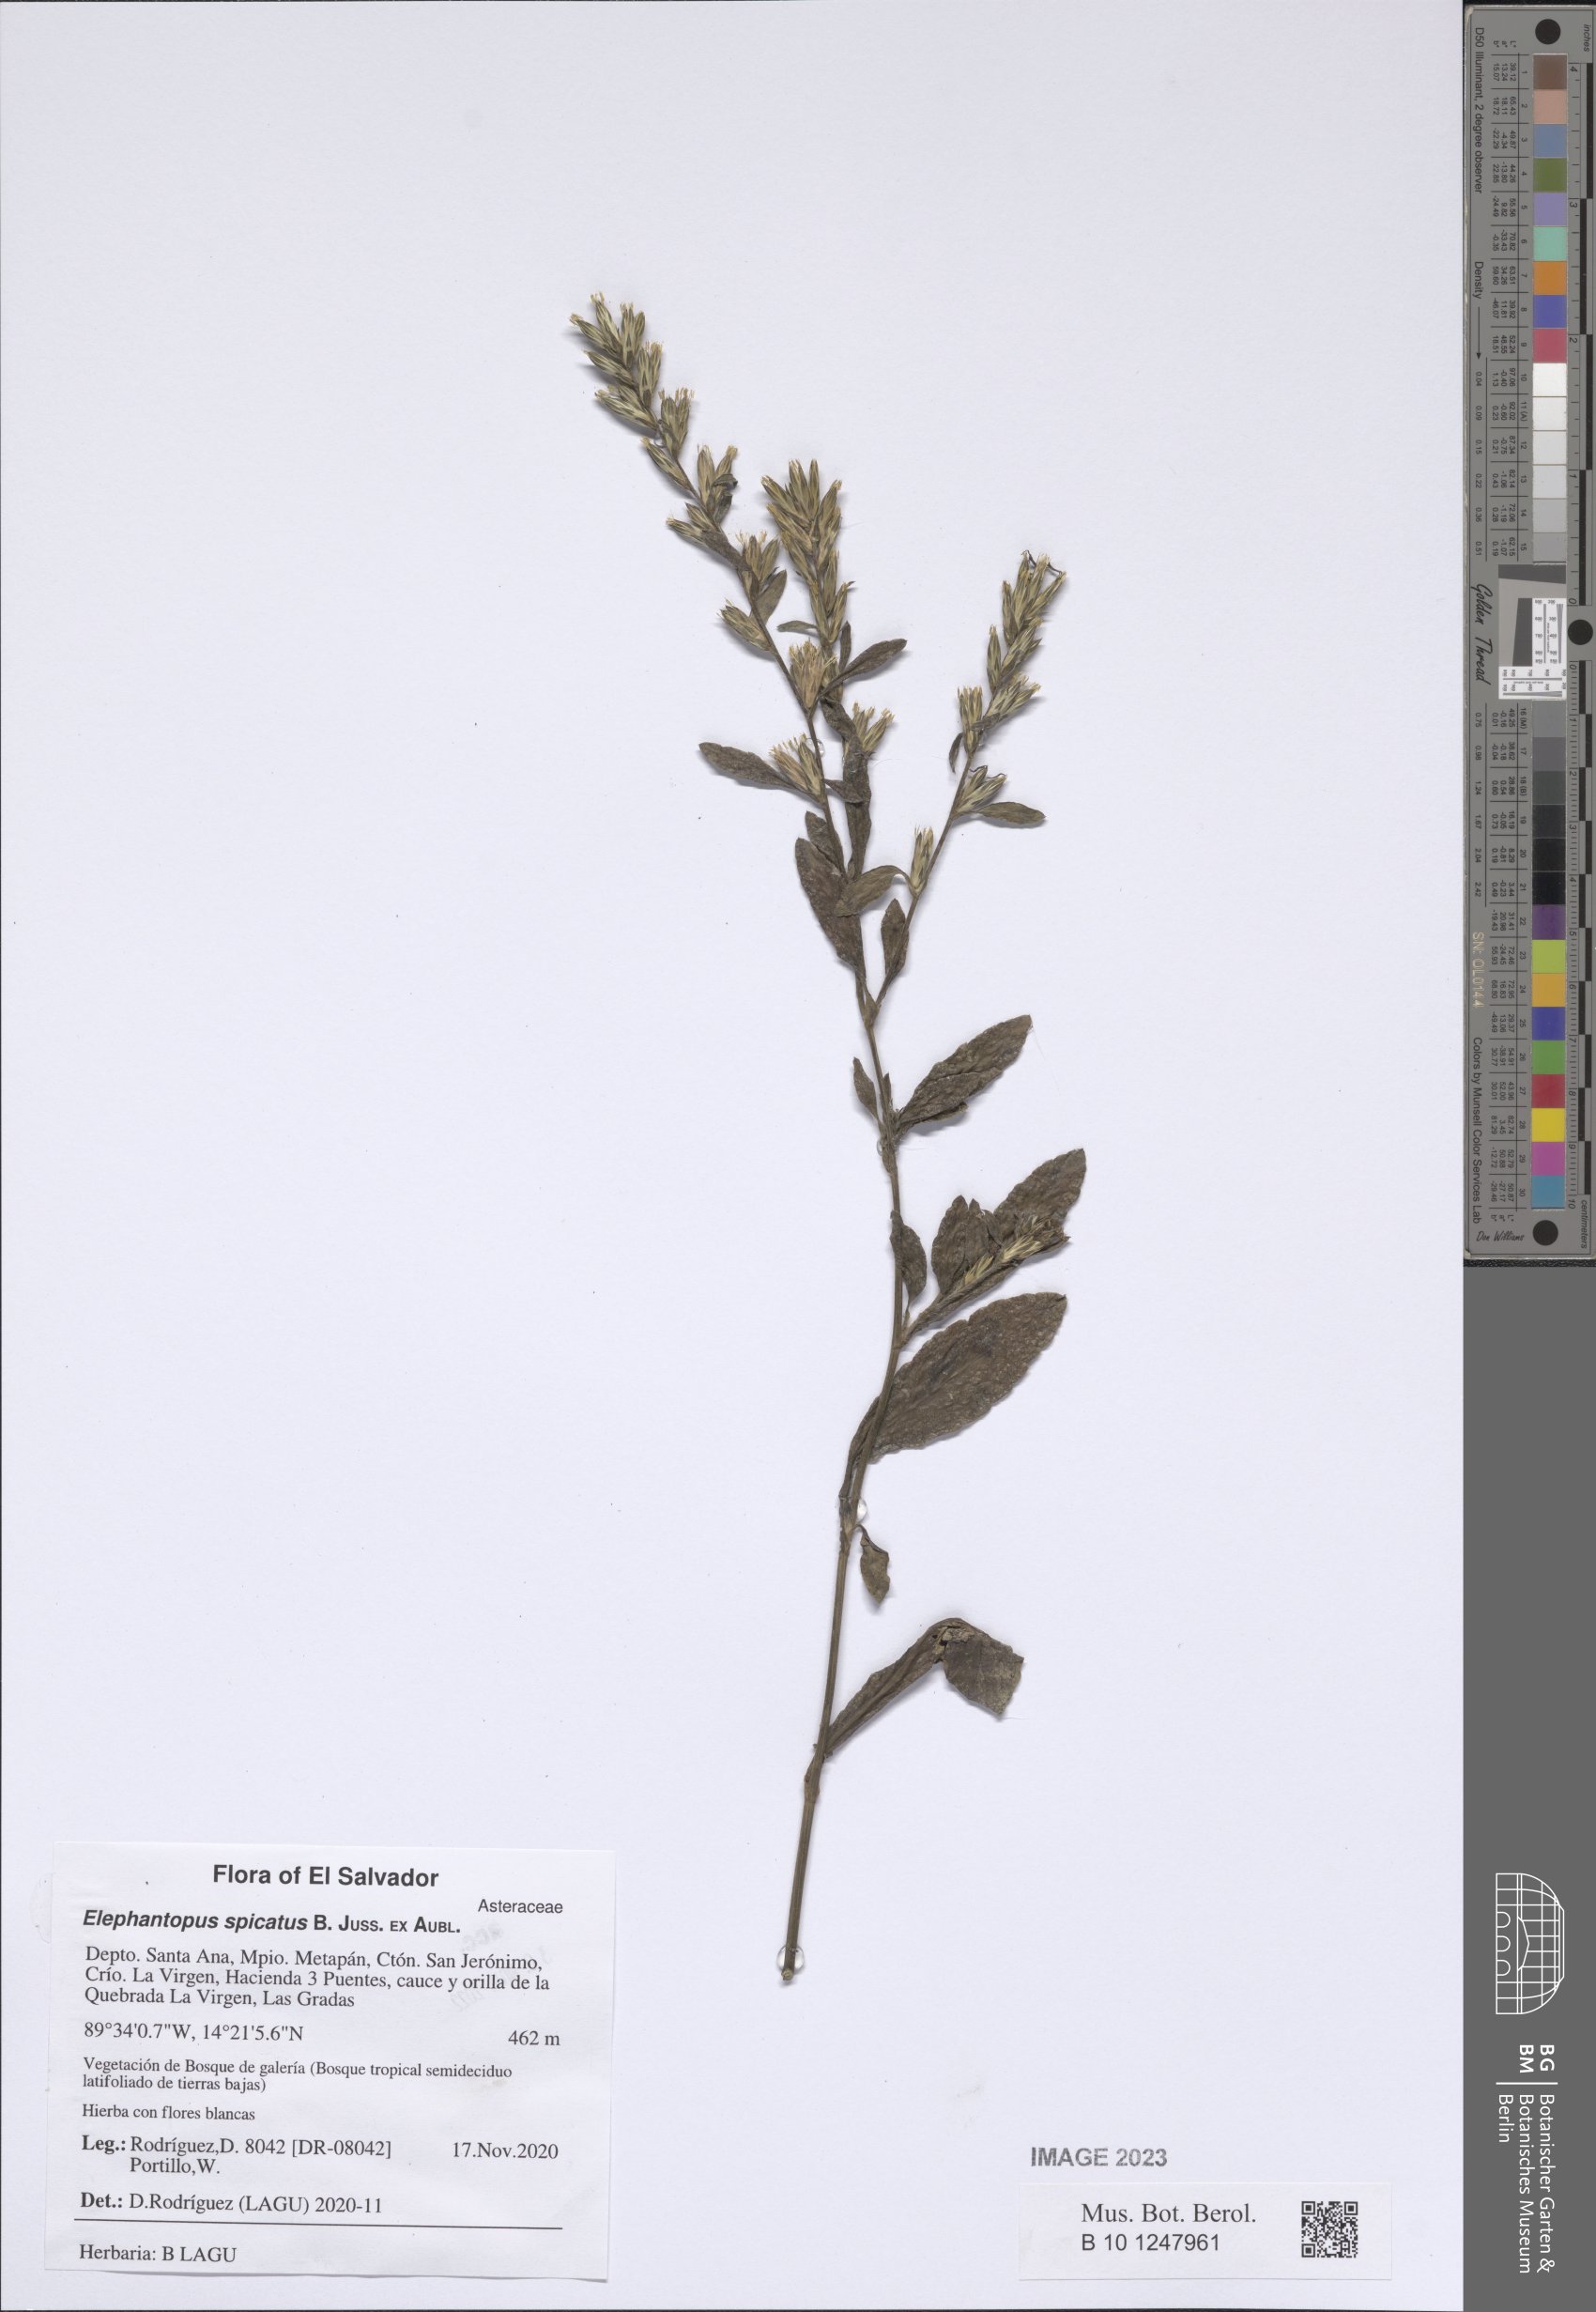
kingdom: Plantae
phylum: Tracheophyta
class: Magnoliopsida
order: Asterales
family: Asteraceae
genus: Pseudelephantopus
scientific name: Pseudelephantopus spicatus
